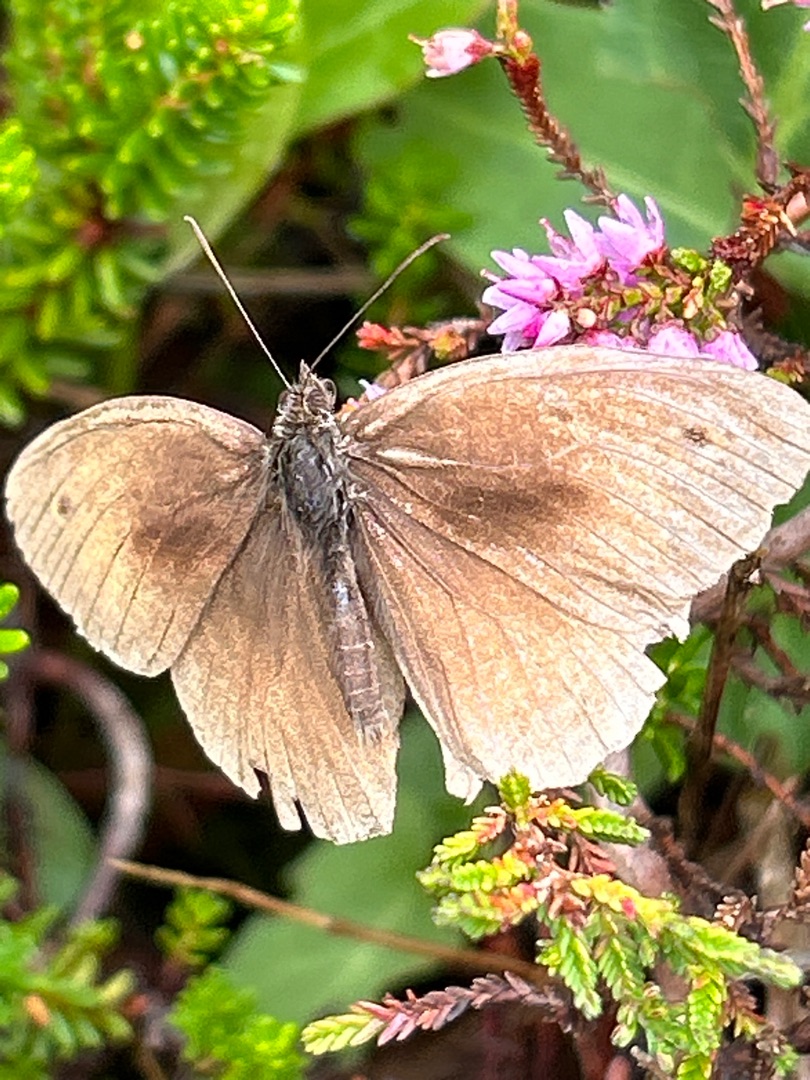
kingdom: Animalia
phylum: Arthropoda
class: Insecta
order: Lepidoptera
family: Nymphalidae
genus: Maniola
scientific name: Maniola jurtina
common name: Græsrandøje
